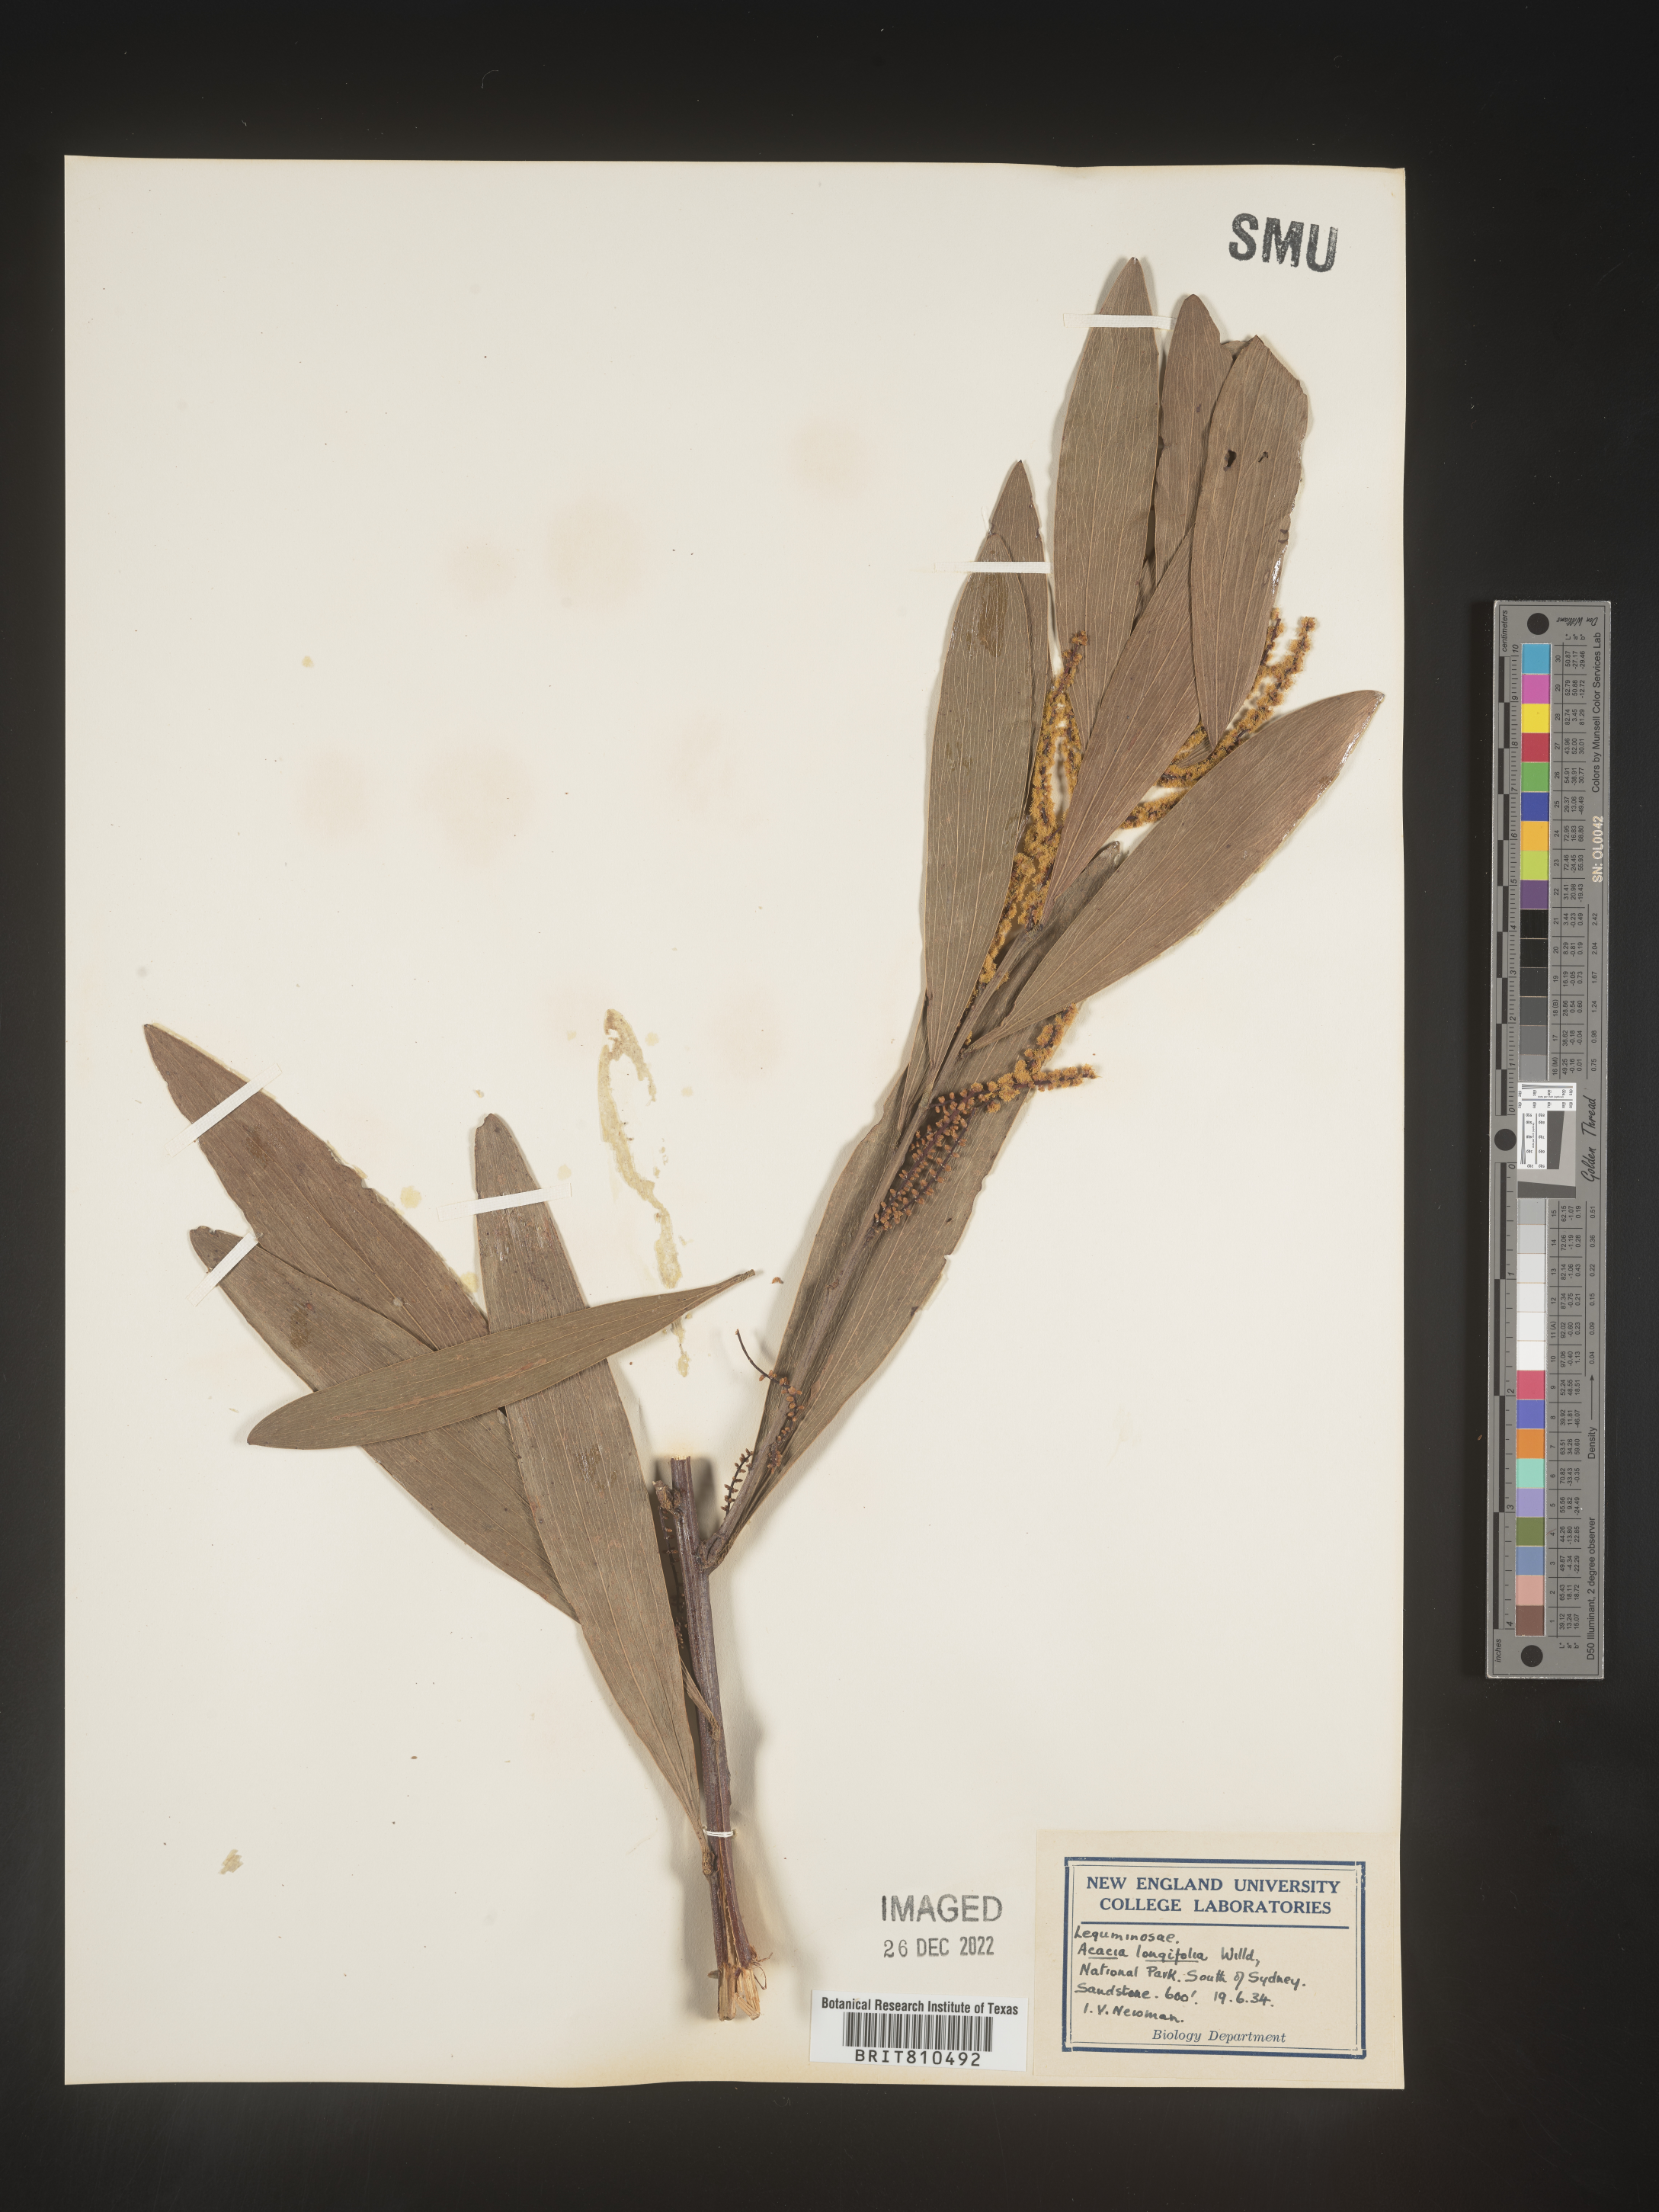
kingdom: Plantae
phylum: Tracheophyta
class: Magnoliopsida
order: Fabales
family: Fabaceae
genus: Acacia
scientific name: Acacia
